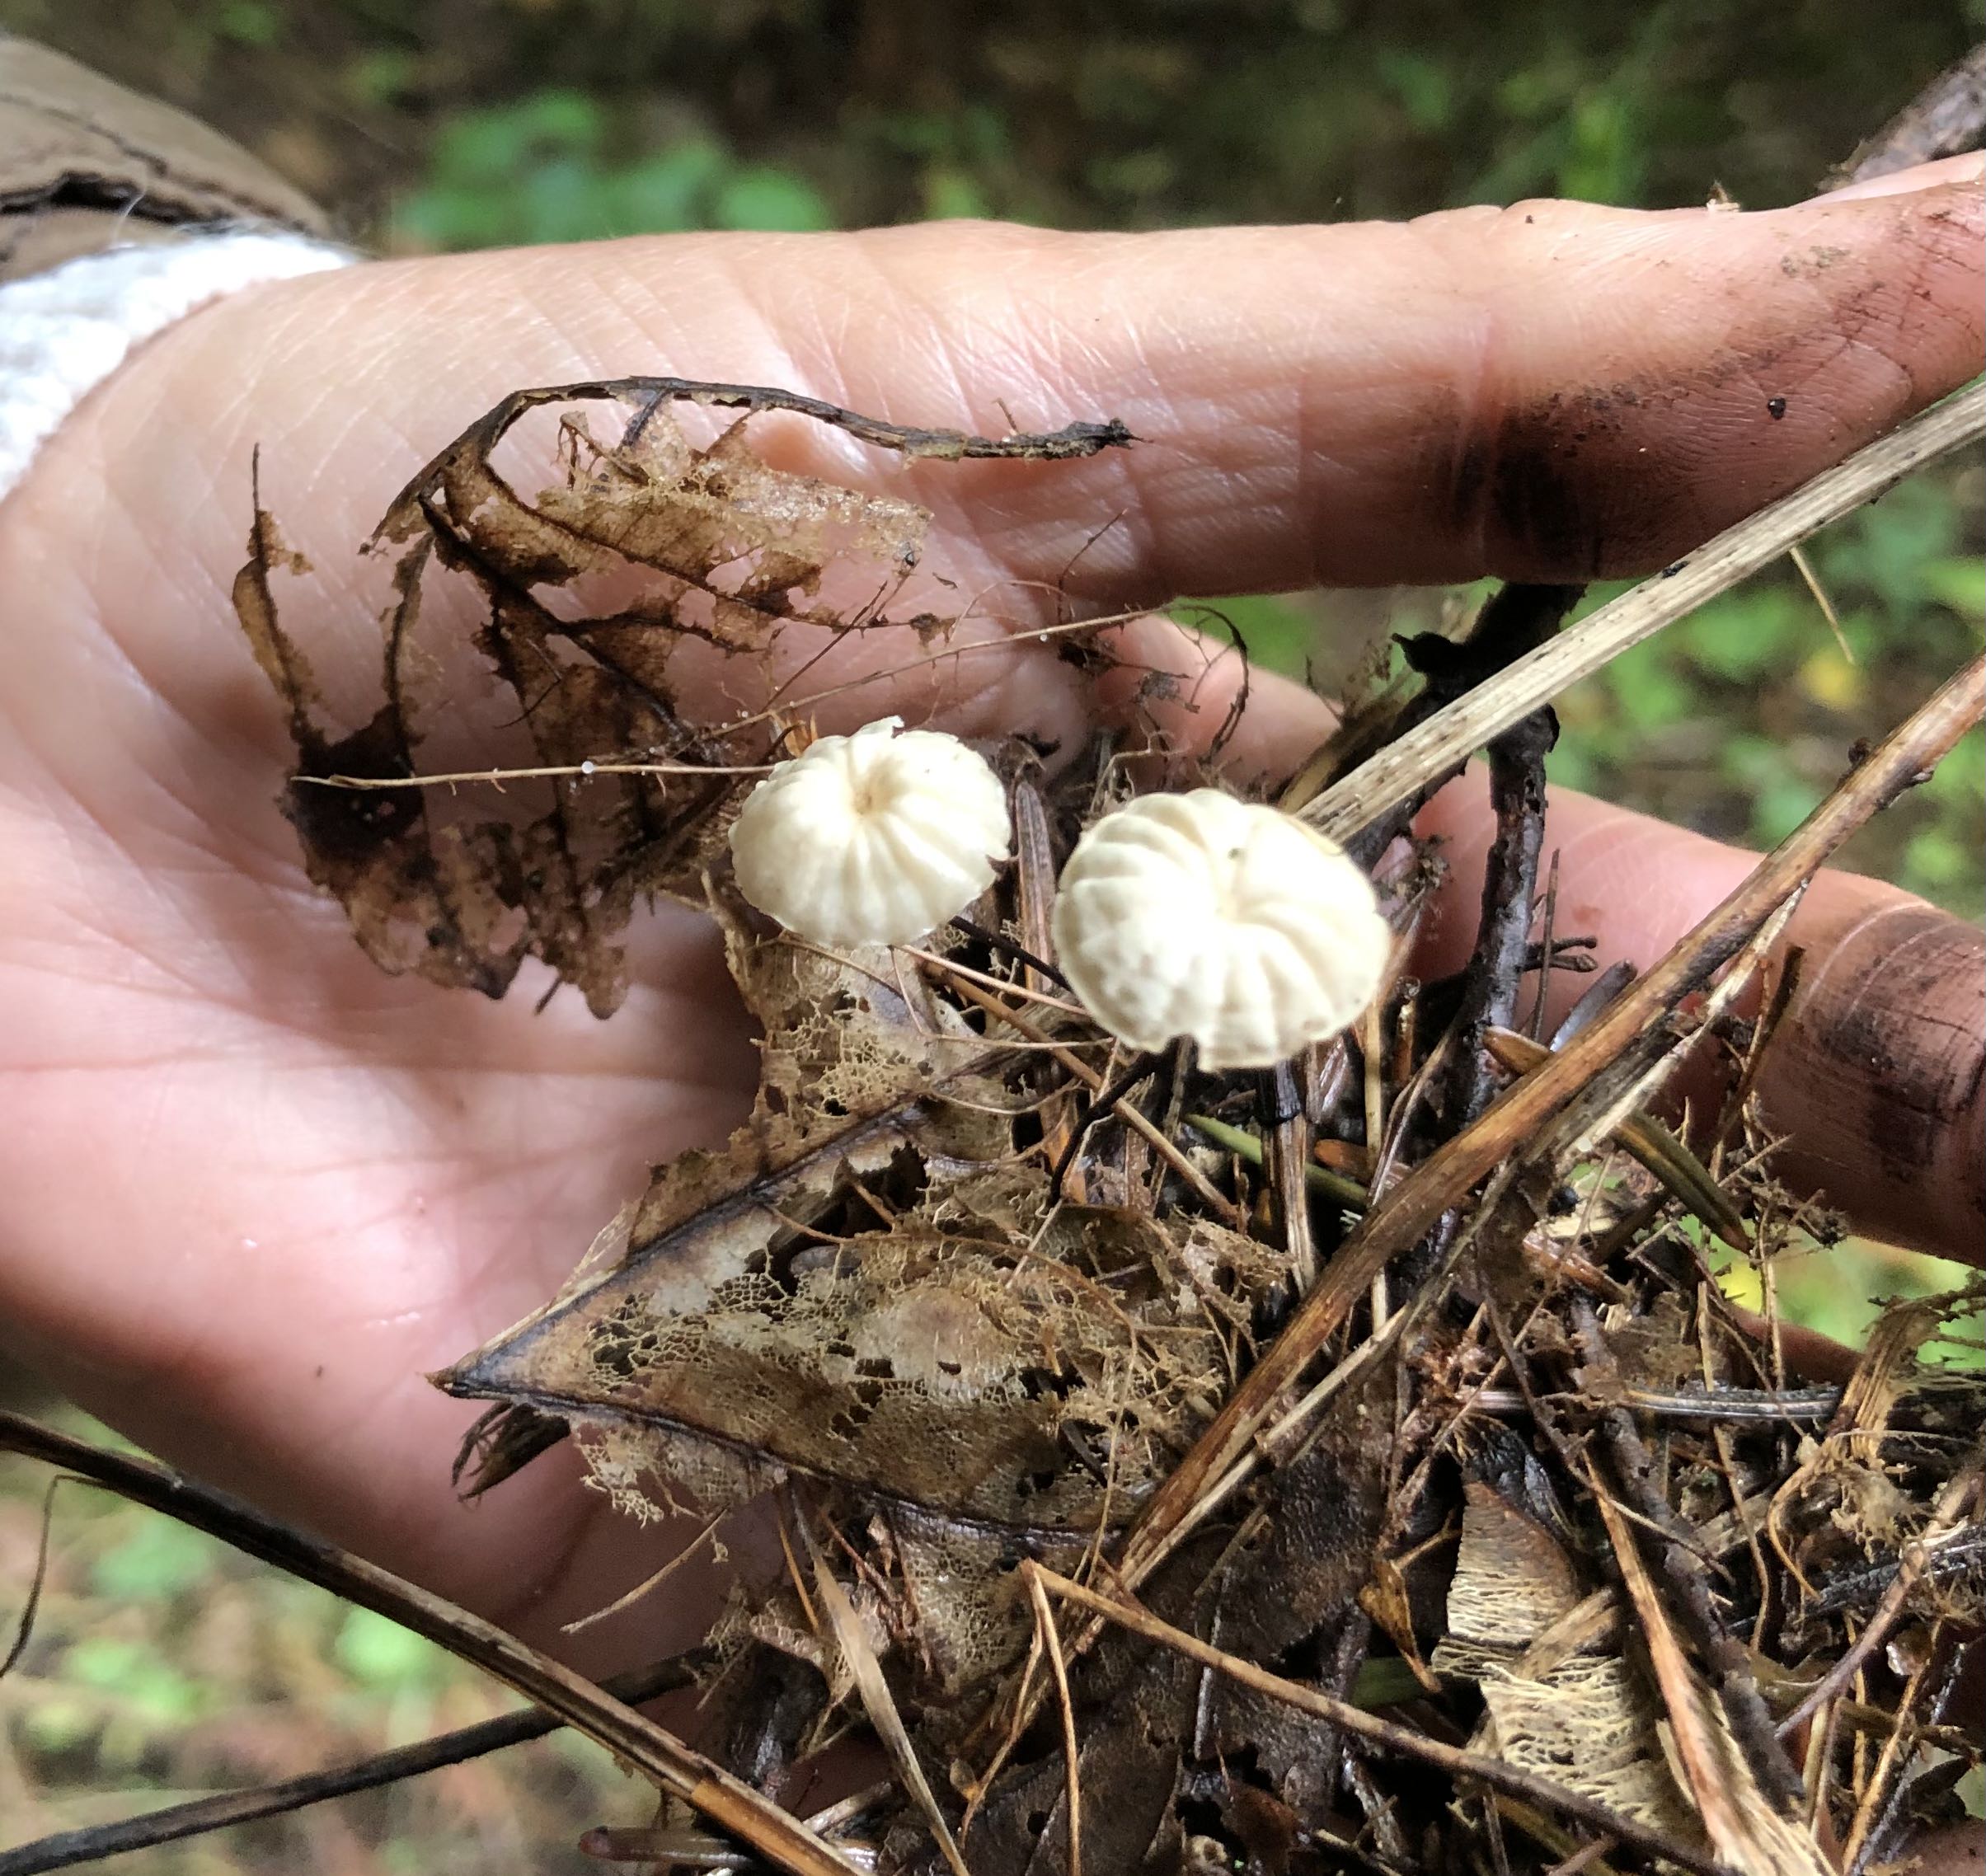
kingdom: Fungi
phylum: Basidiomycota
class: Agaricomycetes
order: Agaricales
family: Marasmiaceae
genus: Marasmius
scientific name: Marasmius rotula
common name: hjul-bruskhat
